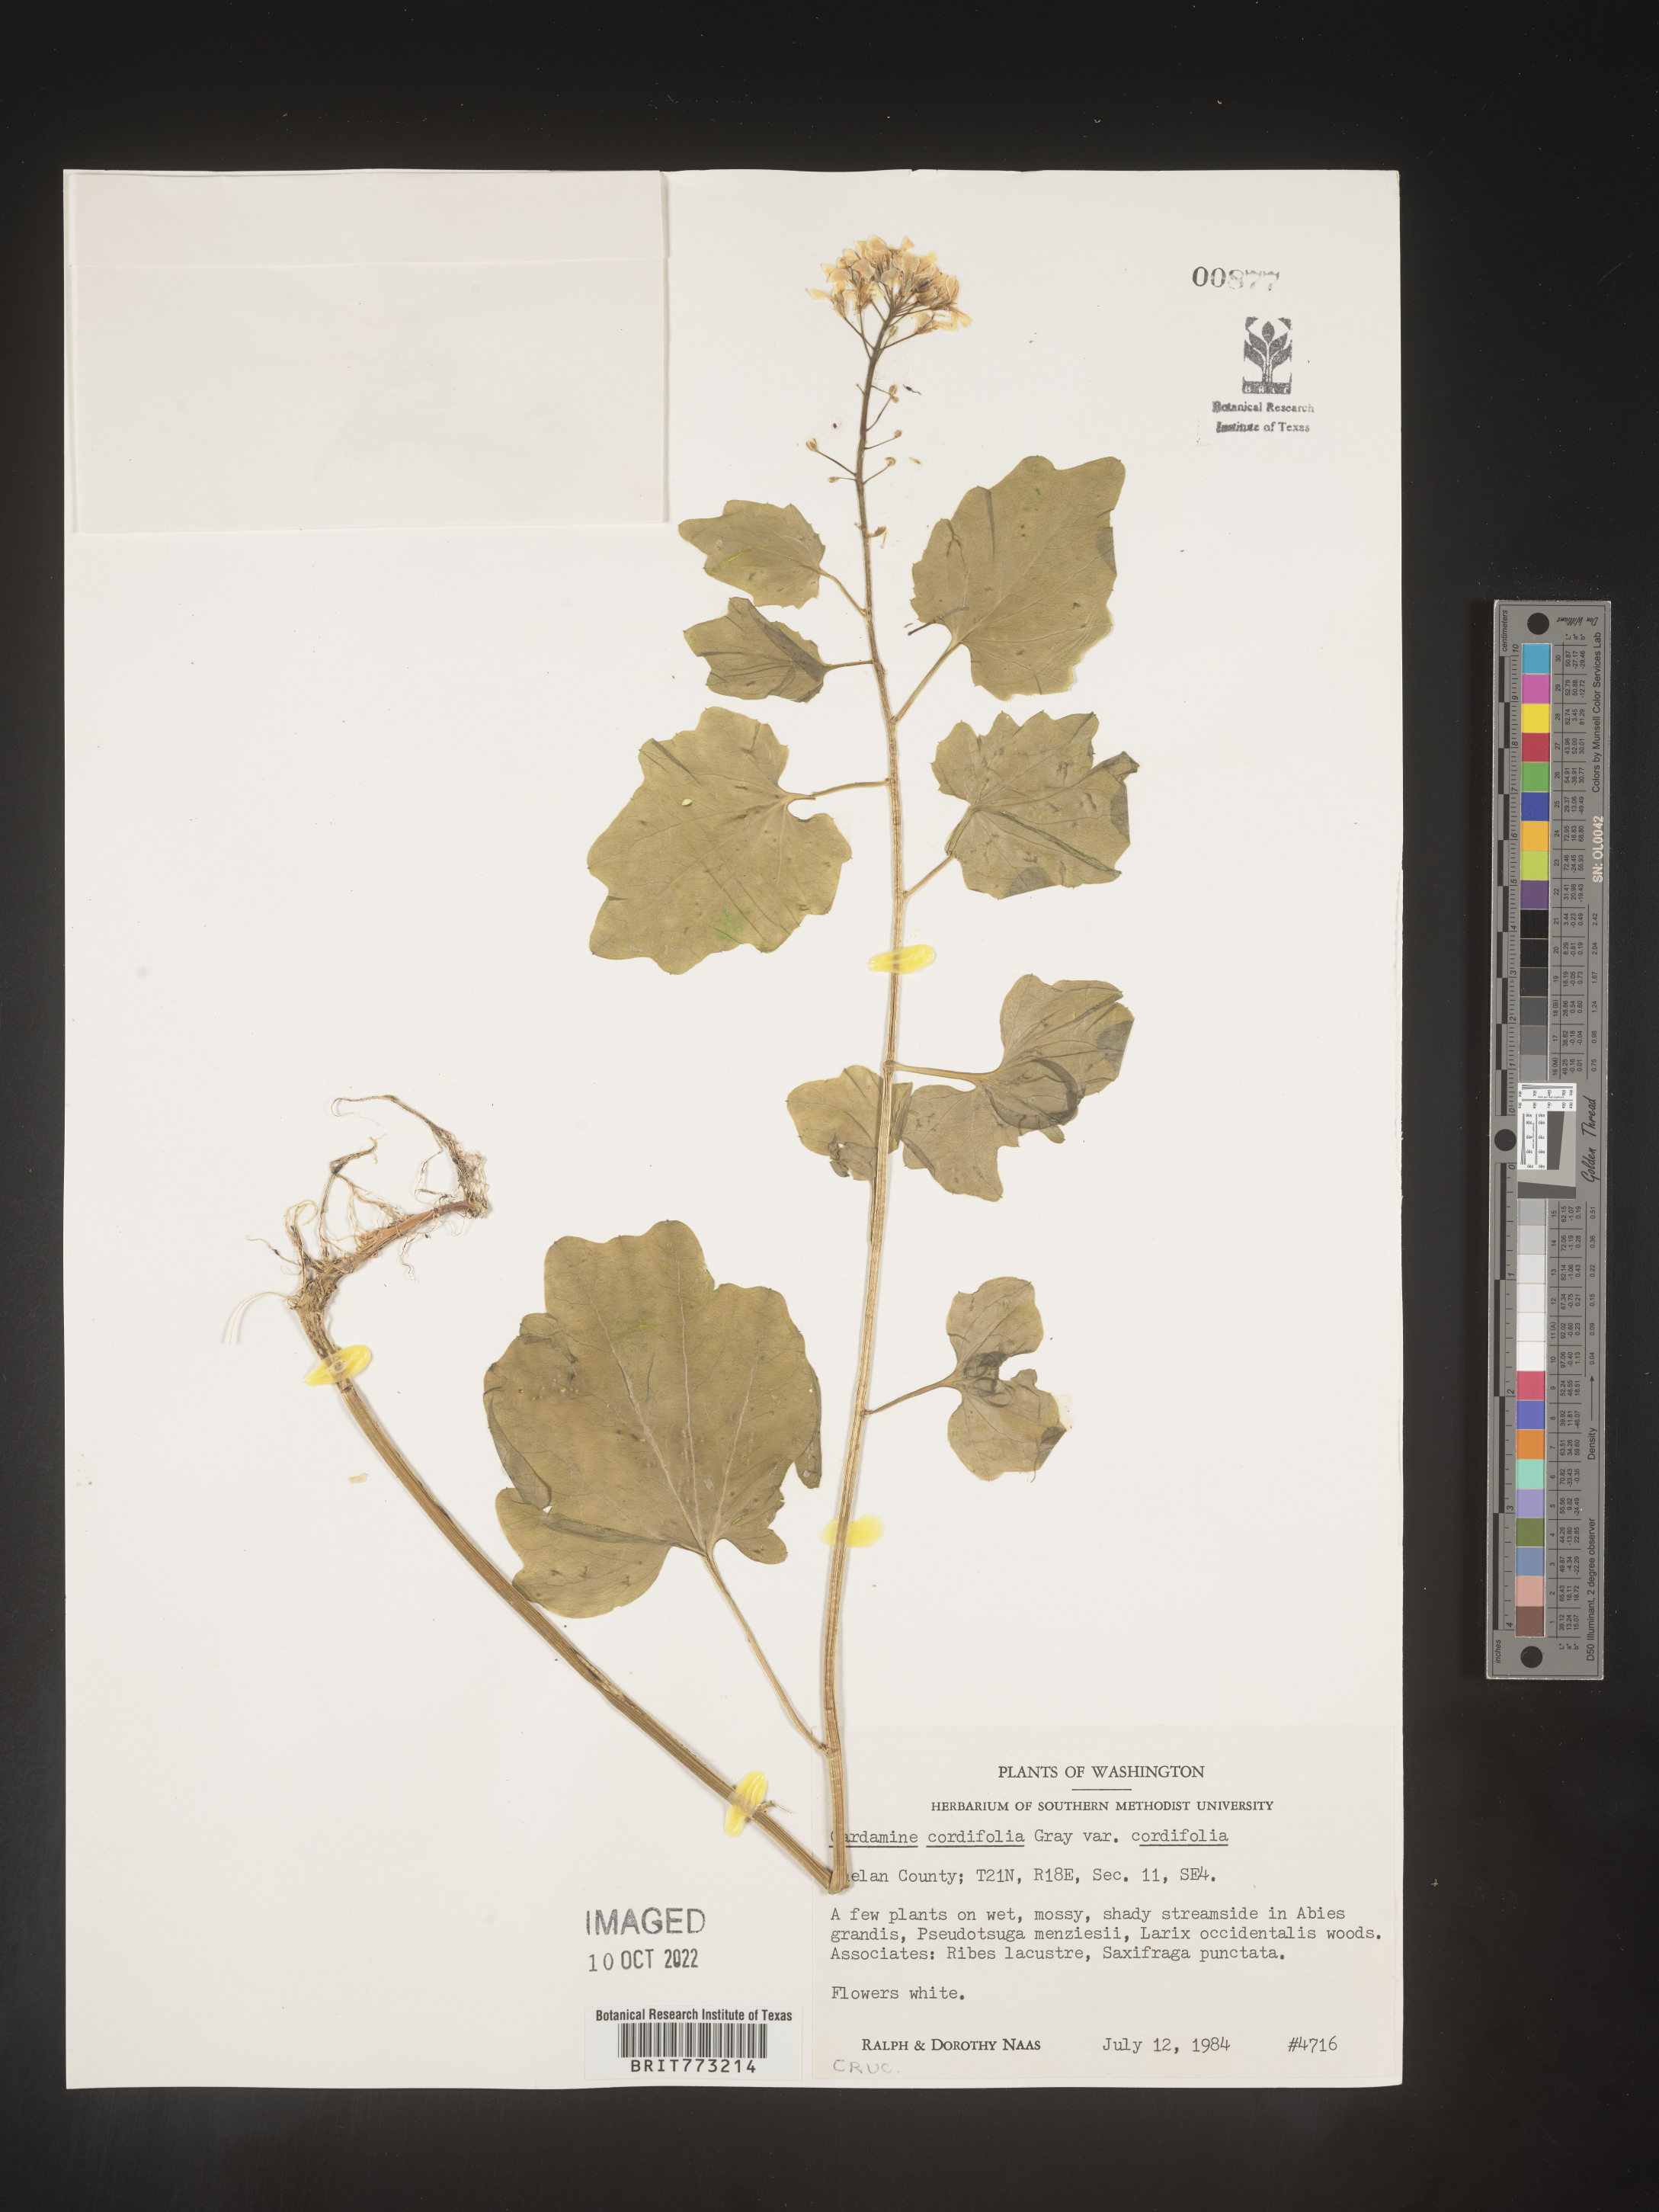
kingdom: Plantae
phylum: Tracheophyta
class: Magnoliopsida
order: Brassicales
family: Brassicaceae
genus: Cardamine
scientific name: Cardamine
